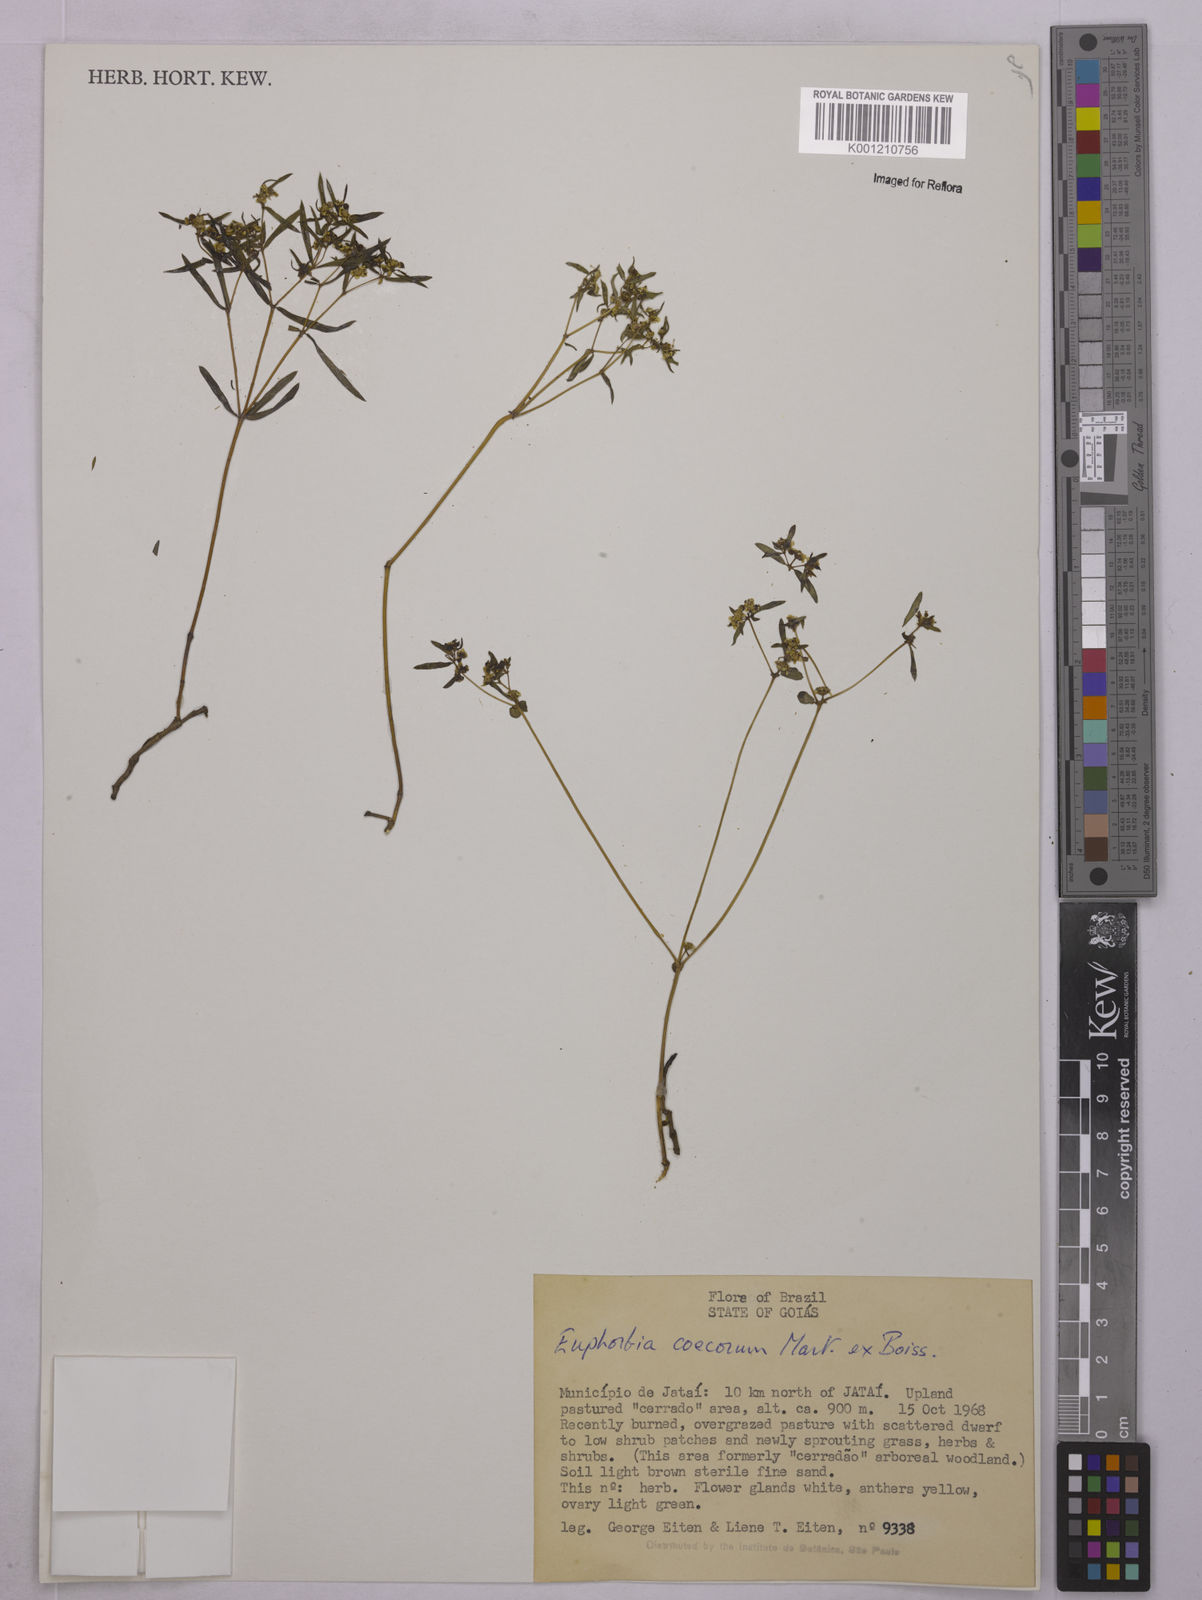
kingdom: Plantae
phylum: Tracheophyta
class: Magnoliopsida
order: Malpighiales
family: Euphorbiaceae
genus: Euphorbia
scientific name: Euphorbia potentilloides
